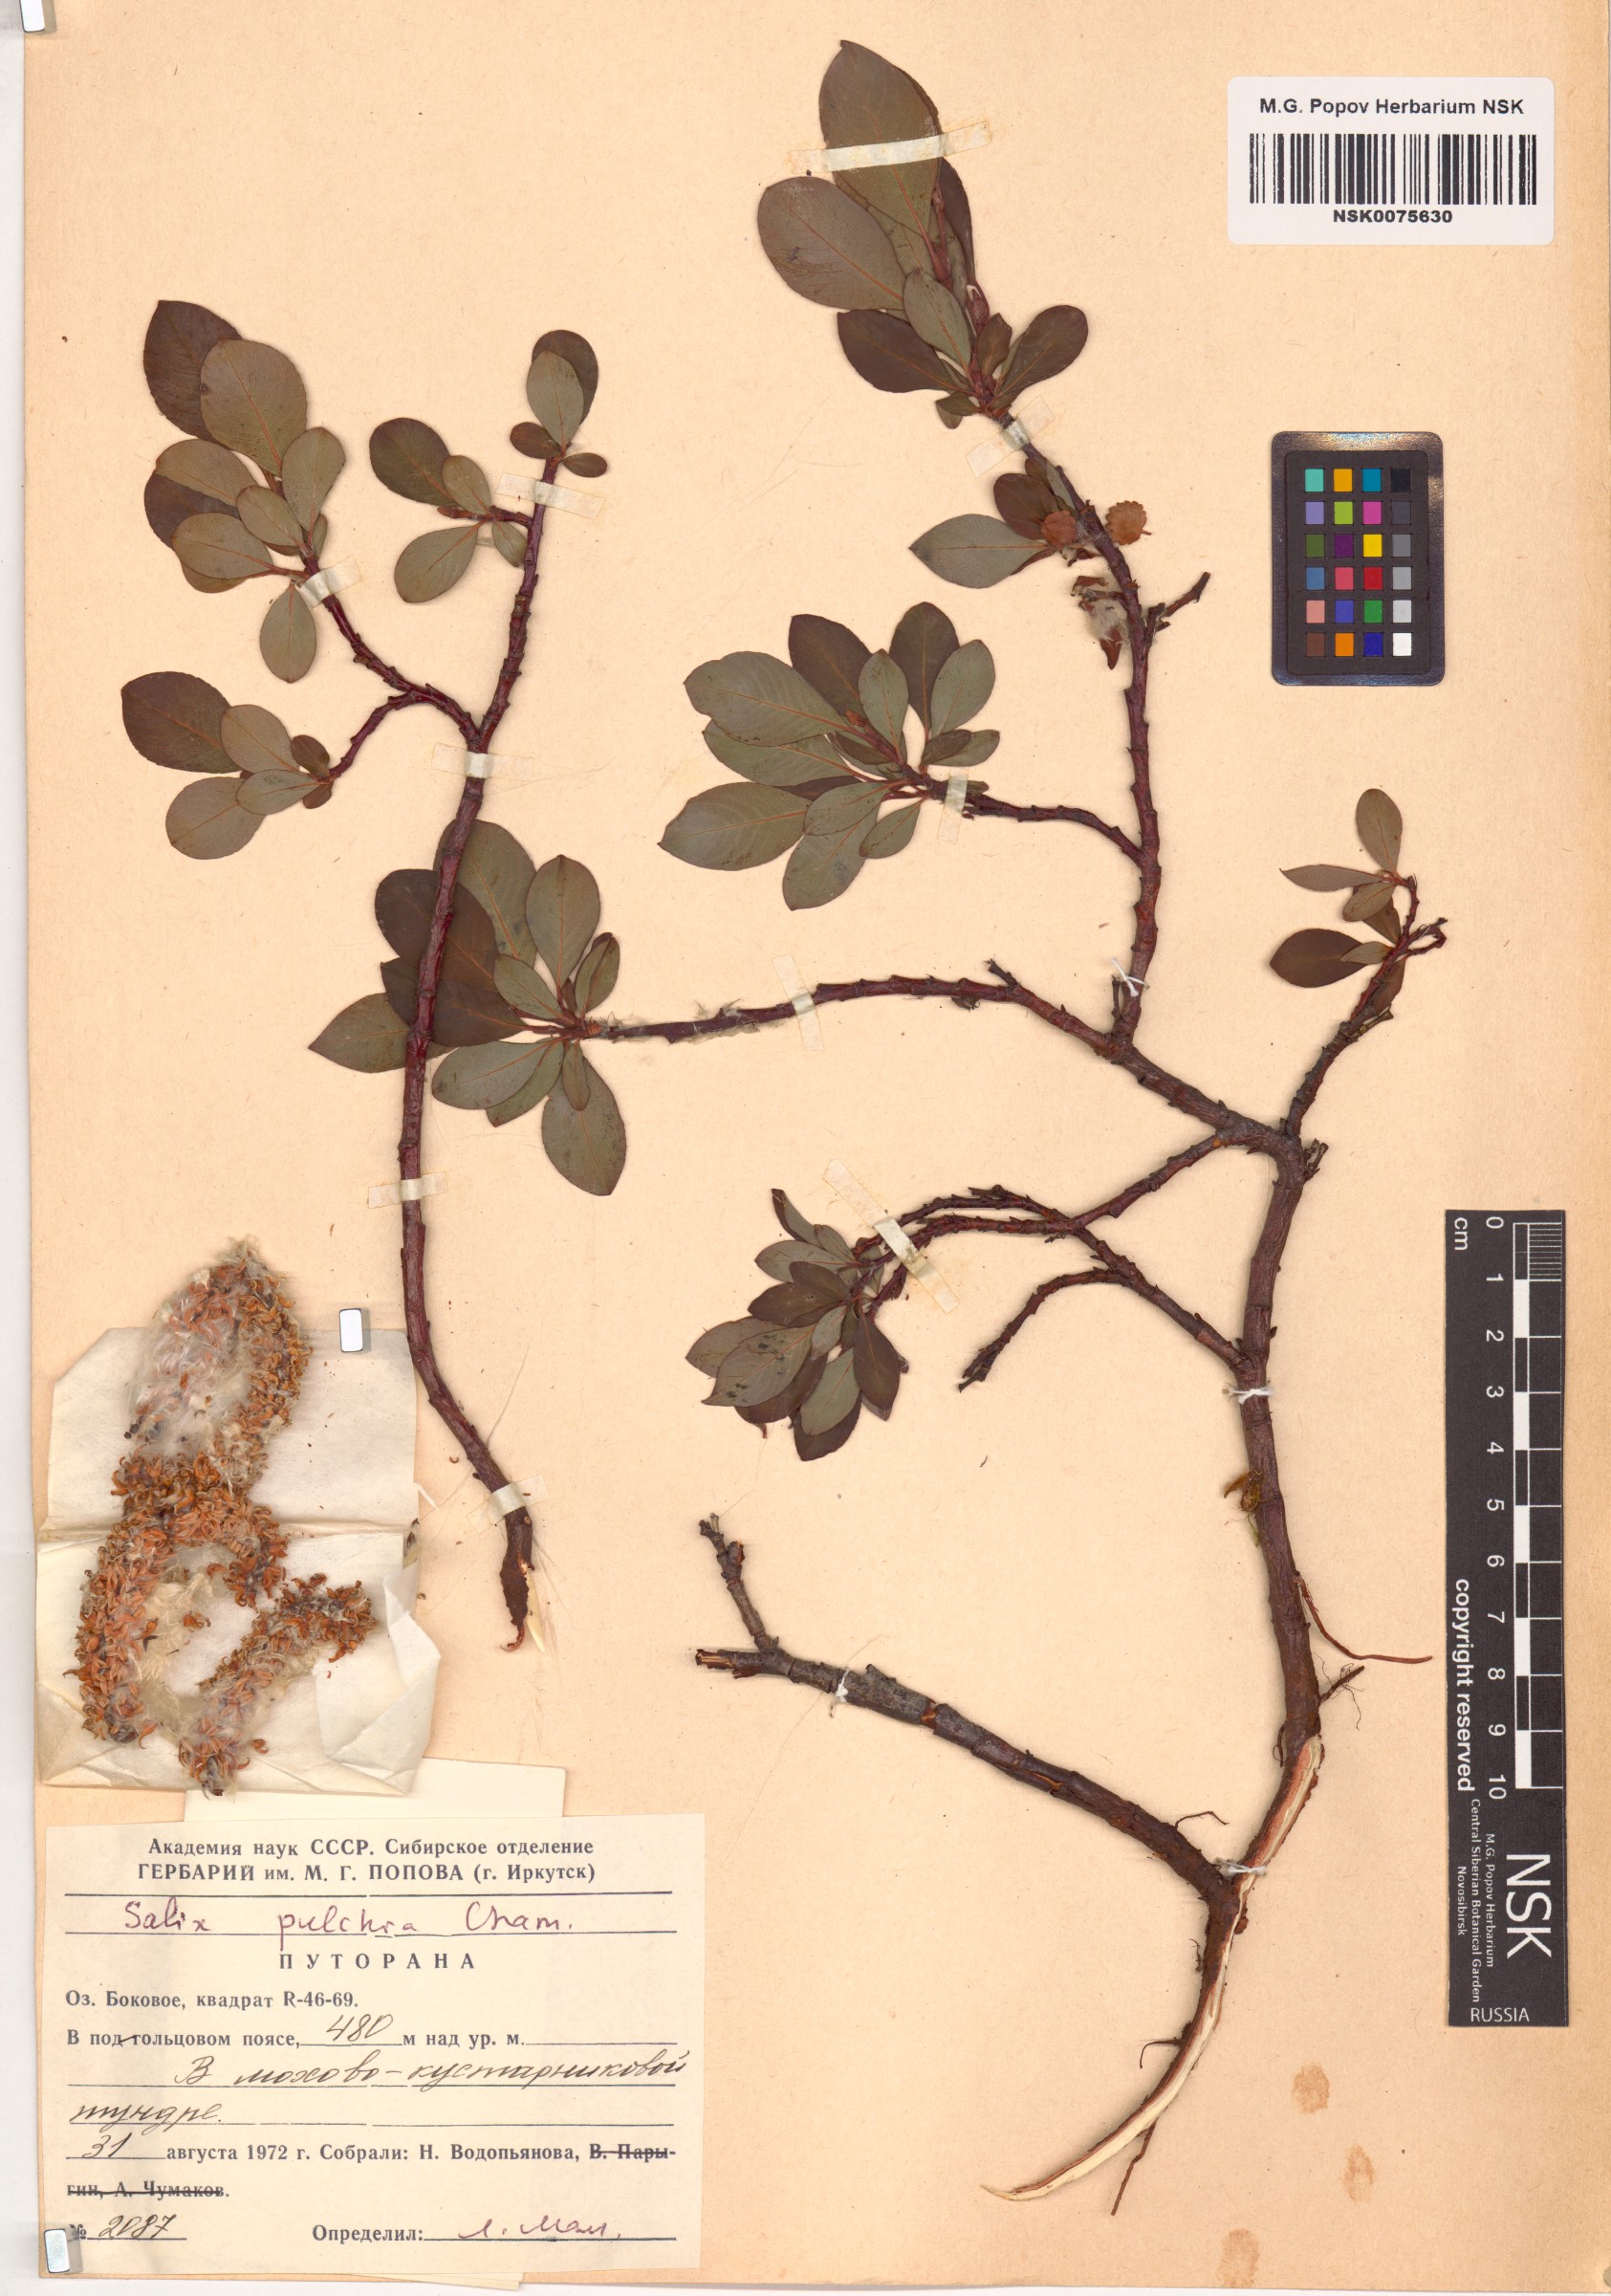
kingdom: Plantae
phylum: Tracheophyta
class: Magnoliopsida
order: Malpighiales
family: Salicaceae
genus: Salix
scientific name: Salix pulchra
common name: Diamond-leaved willow
